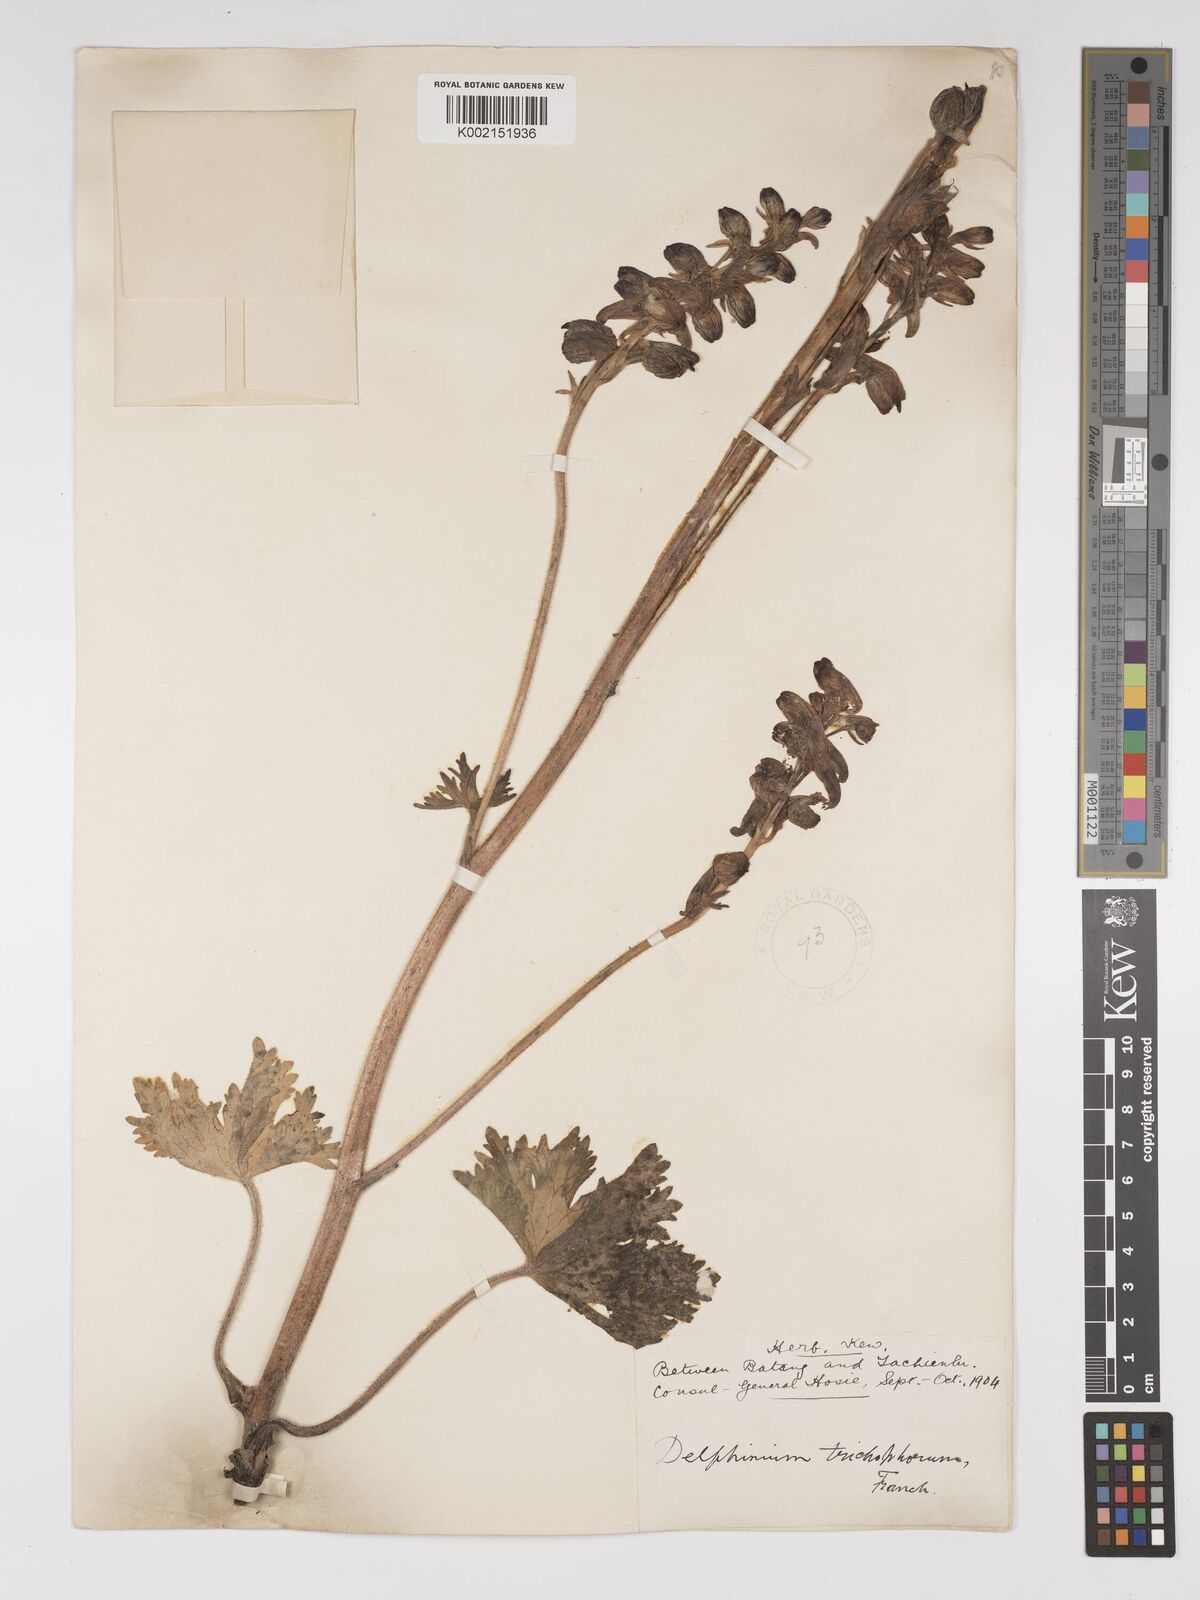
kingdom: Plantae
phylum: Tracheophyta
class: Magnoliopsida
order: Ranunculales
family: Ranunculaceae
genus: Delphinium
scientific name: Delphinium trichophorum
